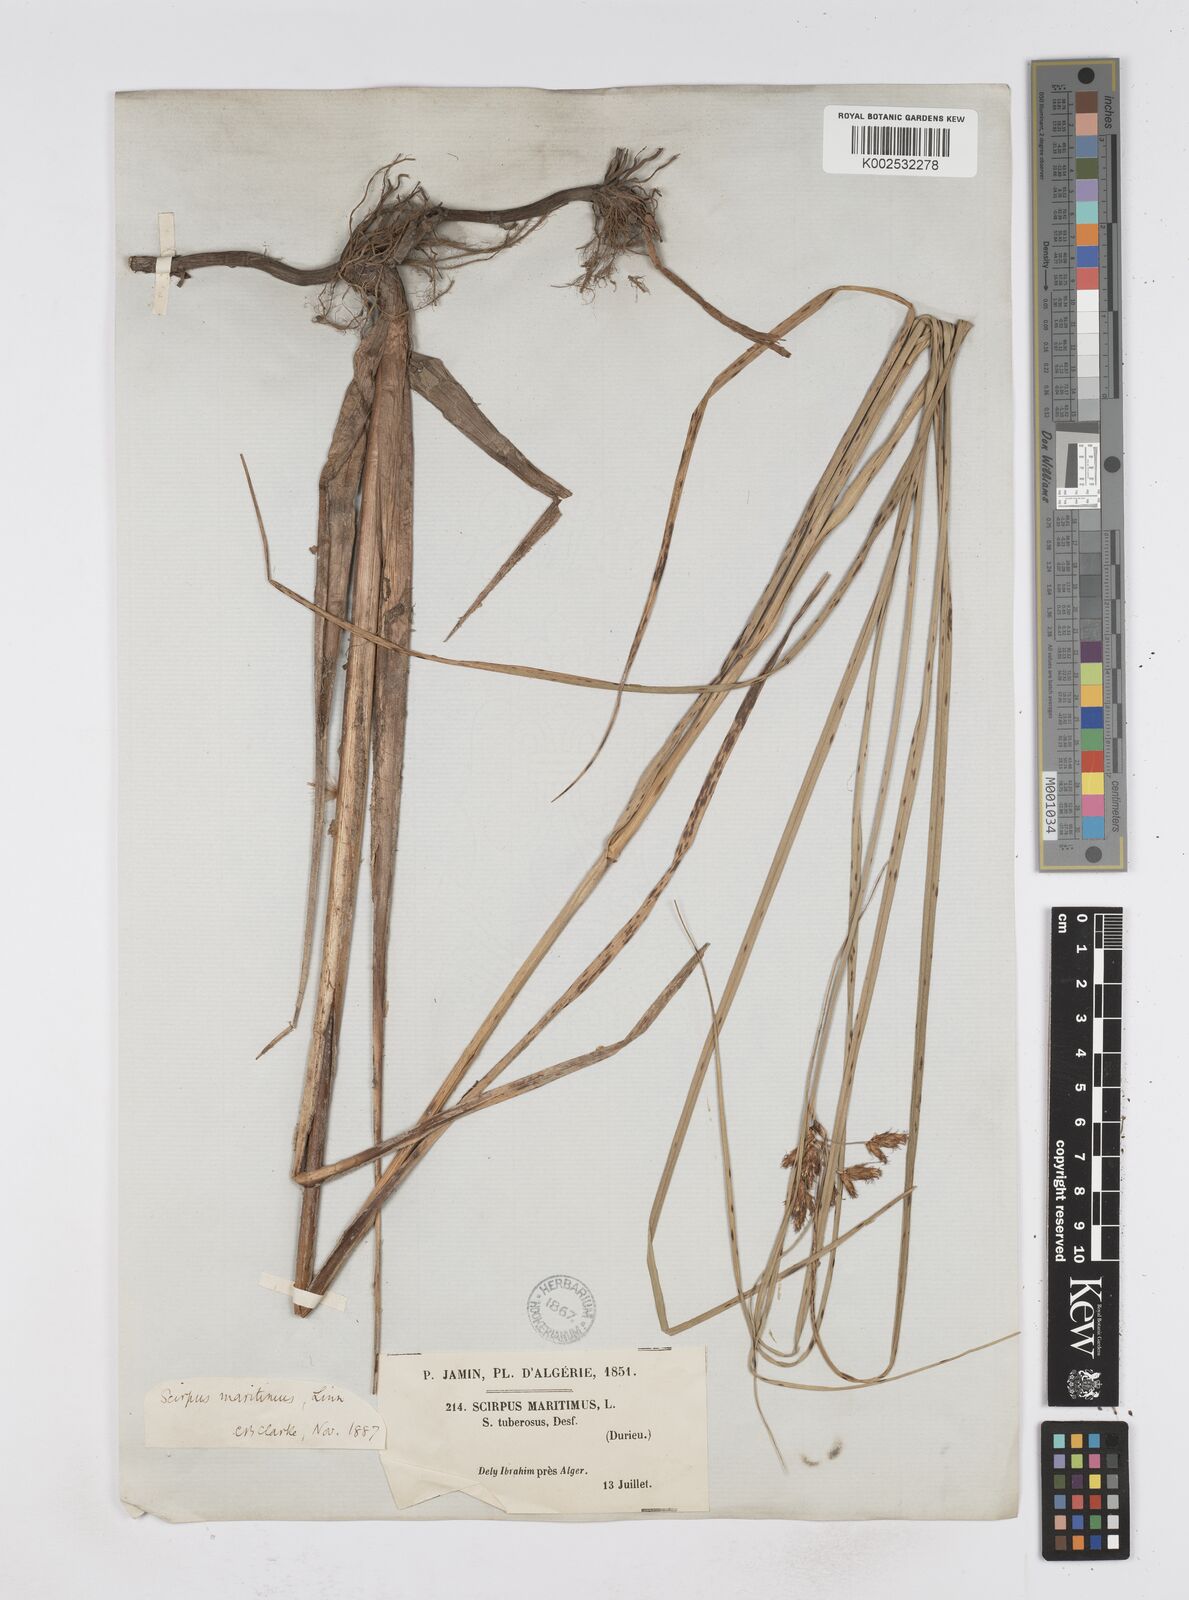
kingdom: Plantae
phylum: Tracheophyta
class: Liliopsida
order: Poales
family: Cyperaceae
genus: Bolboschoenus
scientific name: Bolboschoenus maritimus
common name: Sea club-rush
